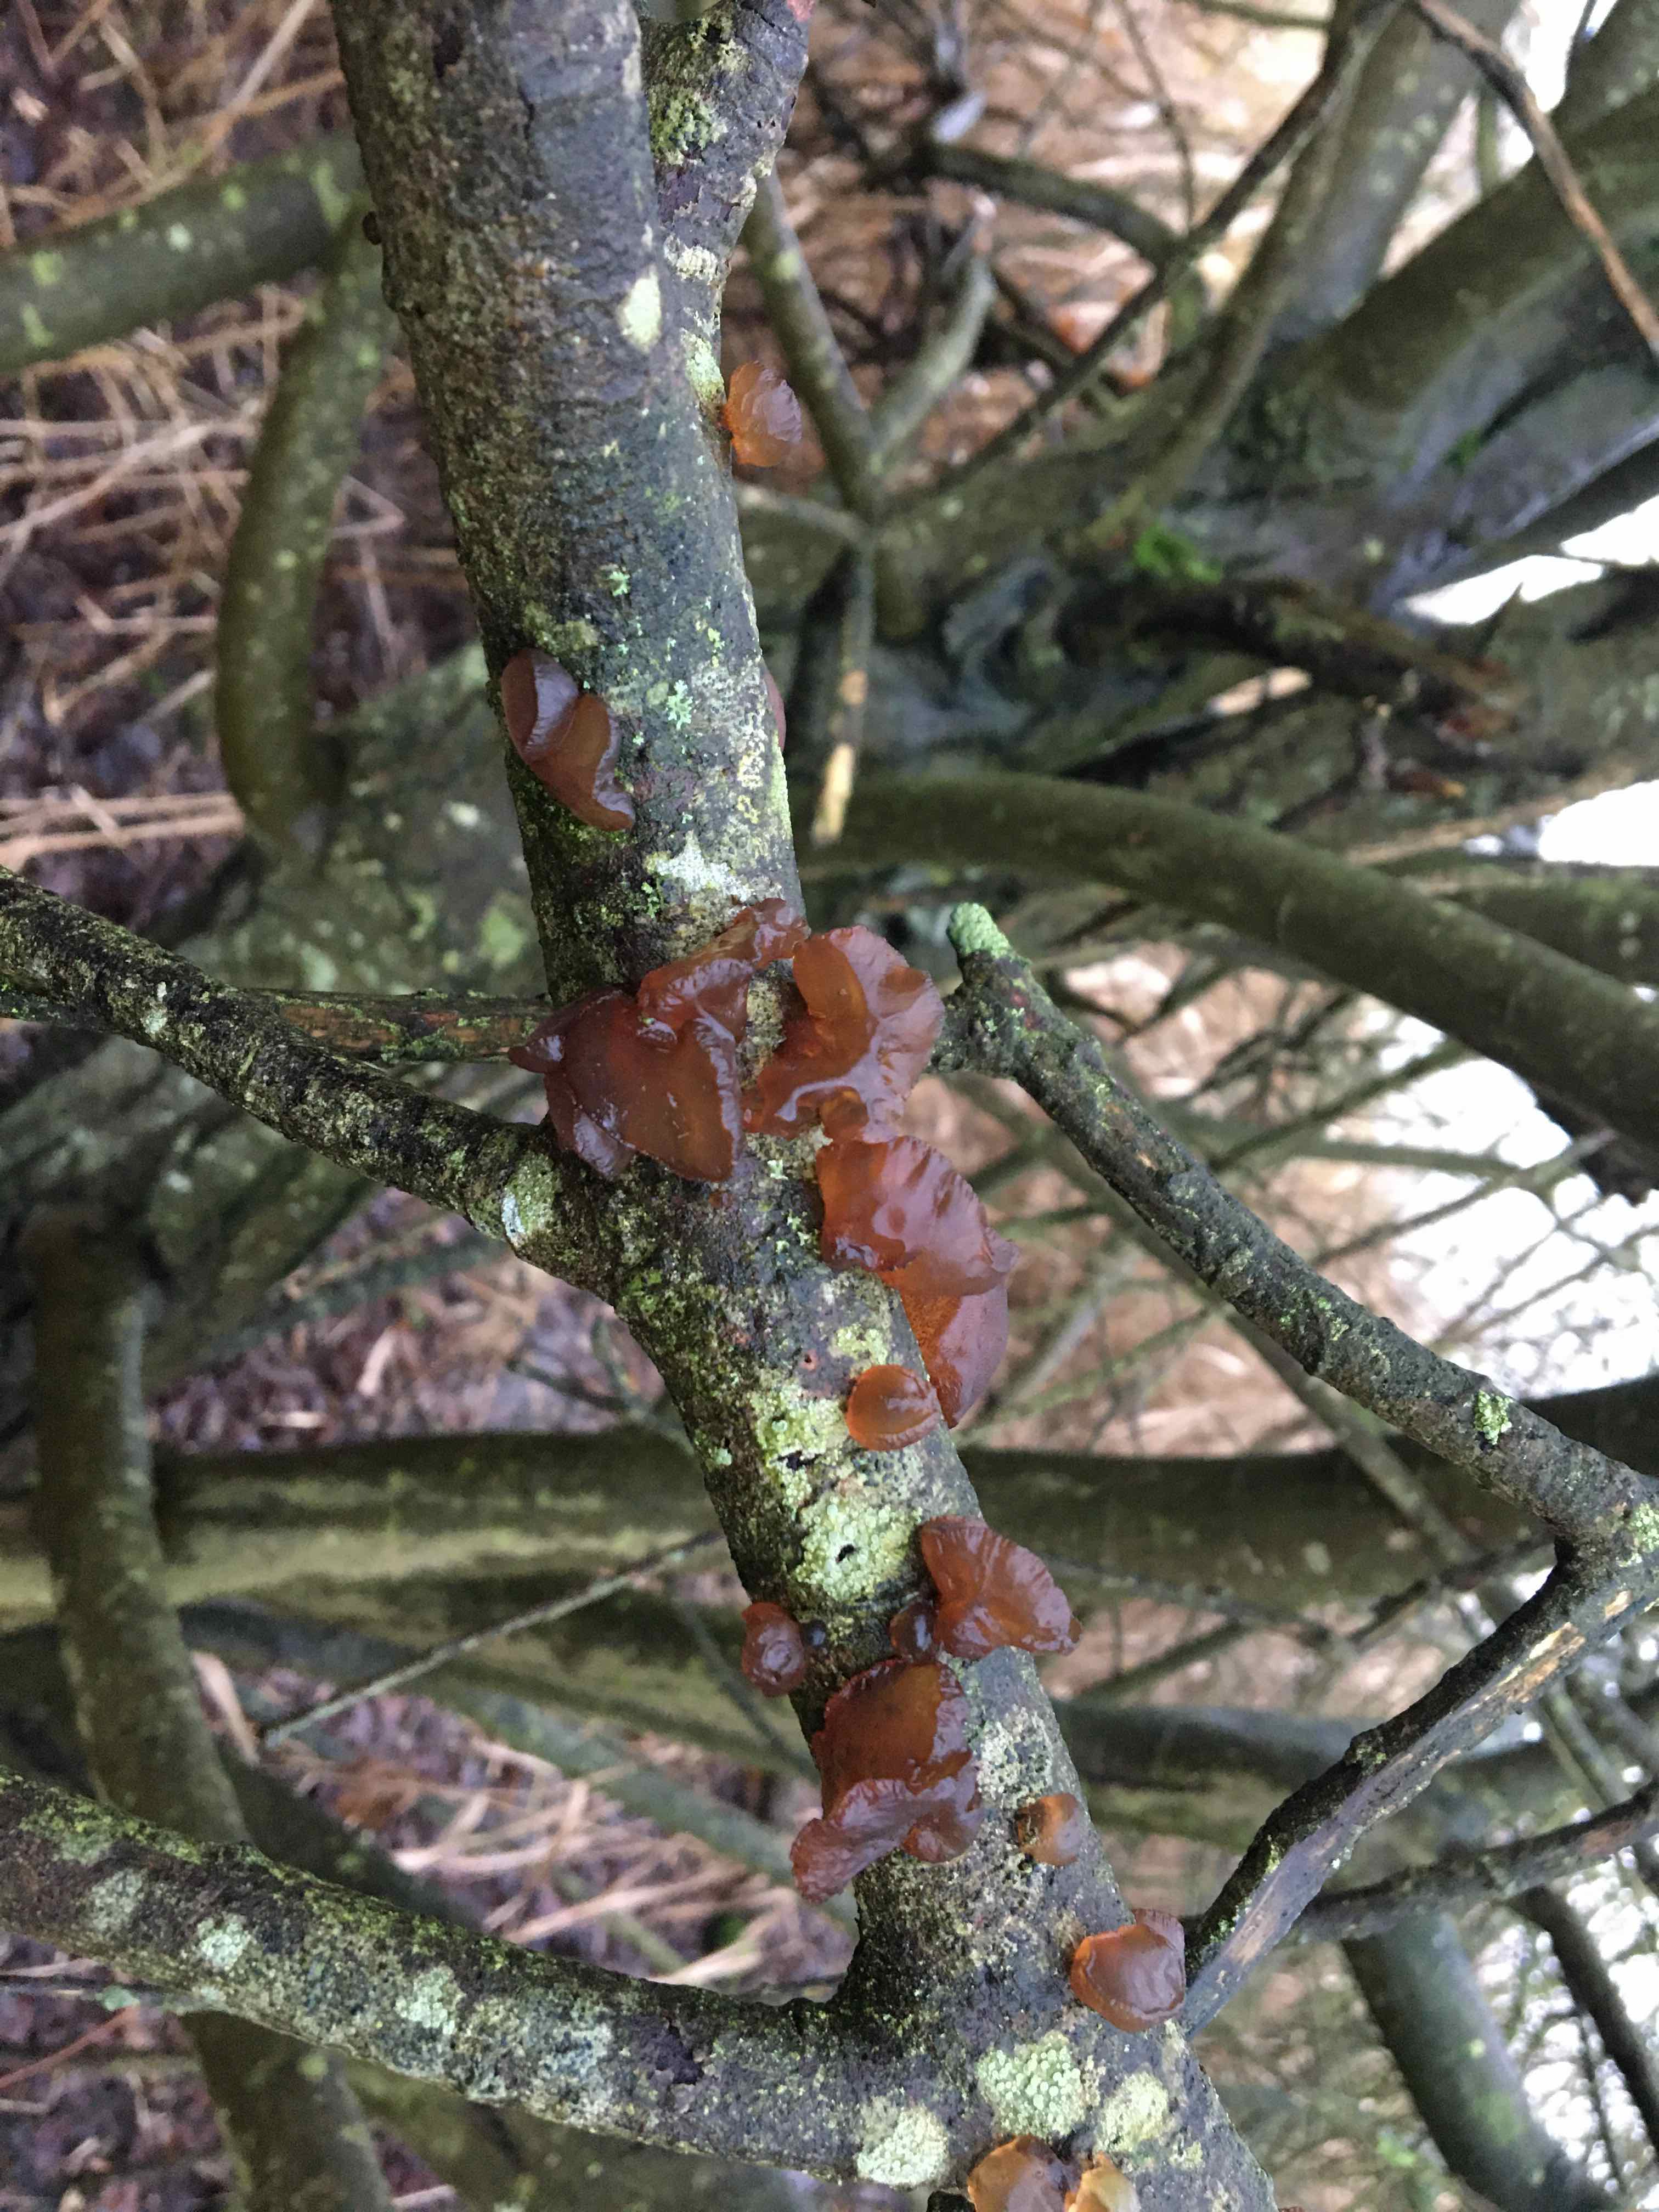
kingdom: Fungi
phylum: Basidiomycota
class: Agaricomycetes
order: Auriculariales
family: Auriculariaceae
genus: Exidia
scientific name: Exidia recisa
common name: pile-bævretop
